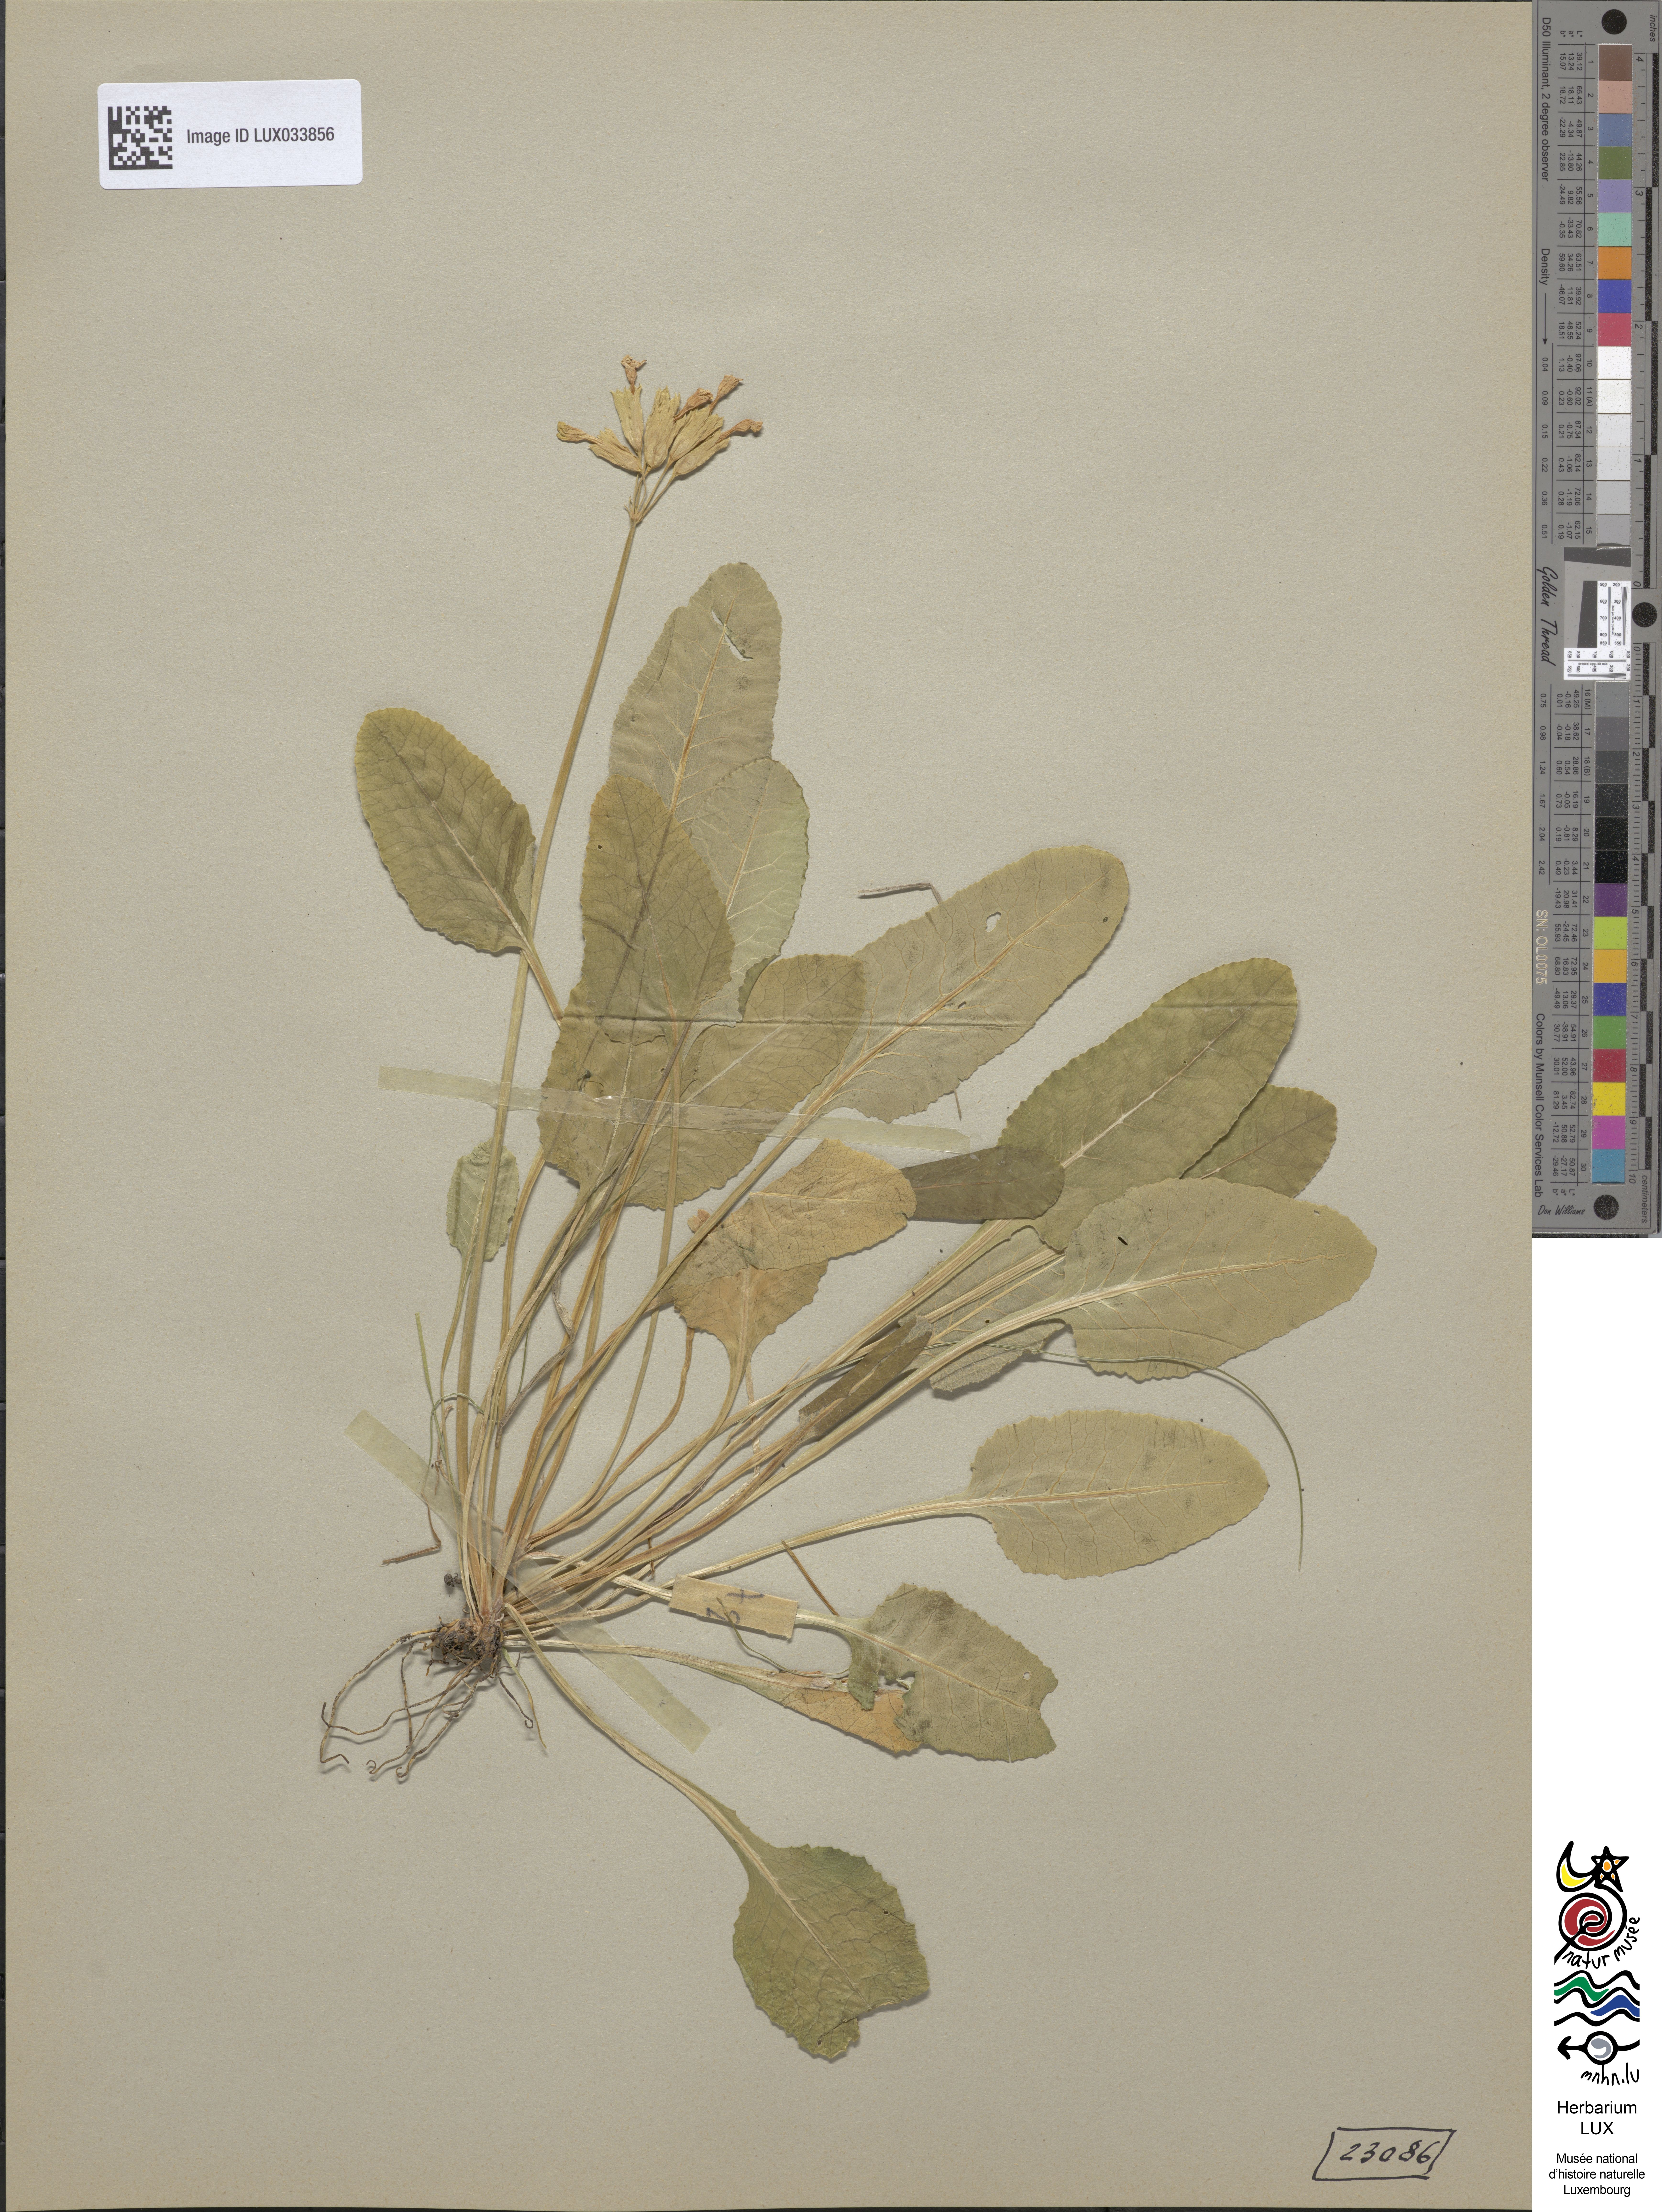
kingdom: Plantae
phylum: Tracheophyta
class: Magnoliopsida
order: Ericales
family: Primulaceae
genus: Primula
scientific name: Primula veris
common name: Cowslip
